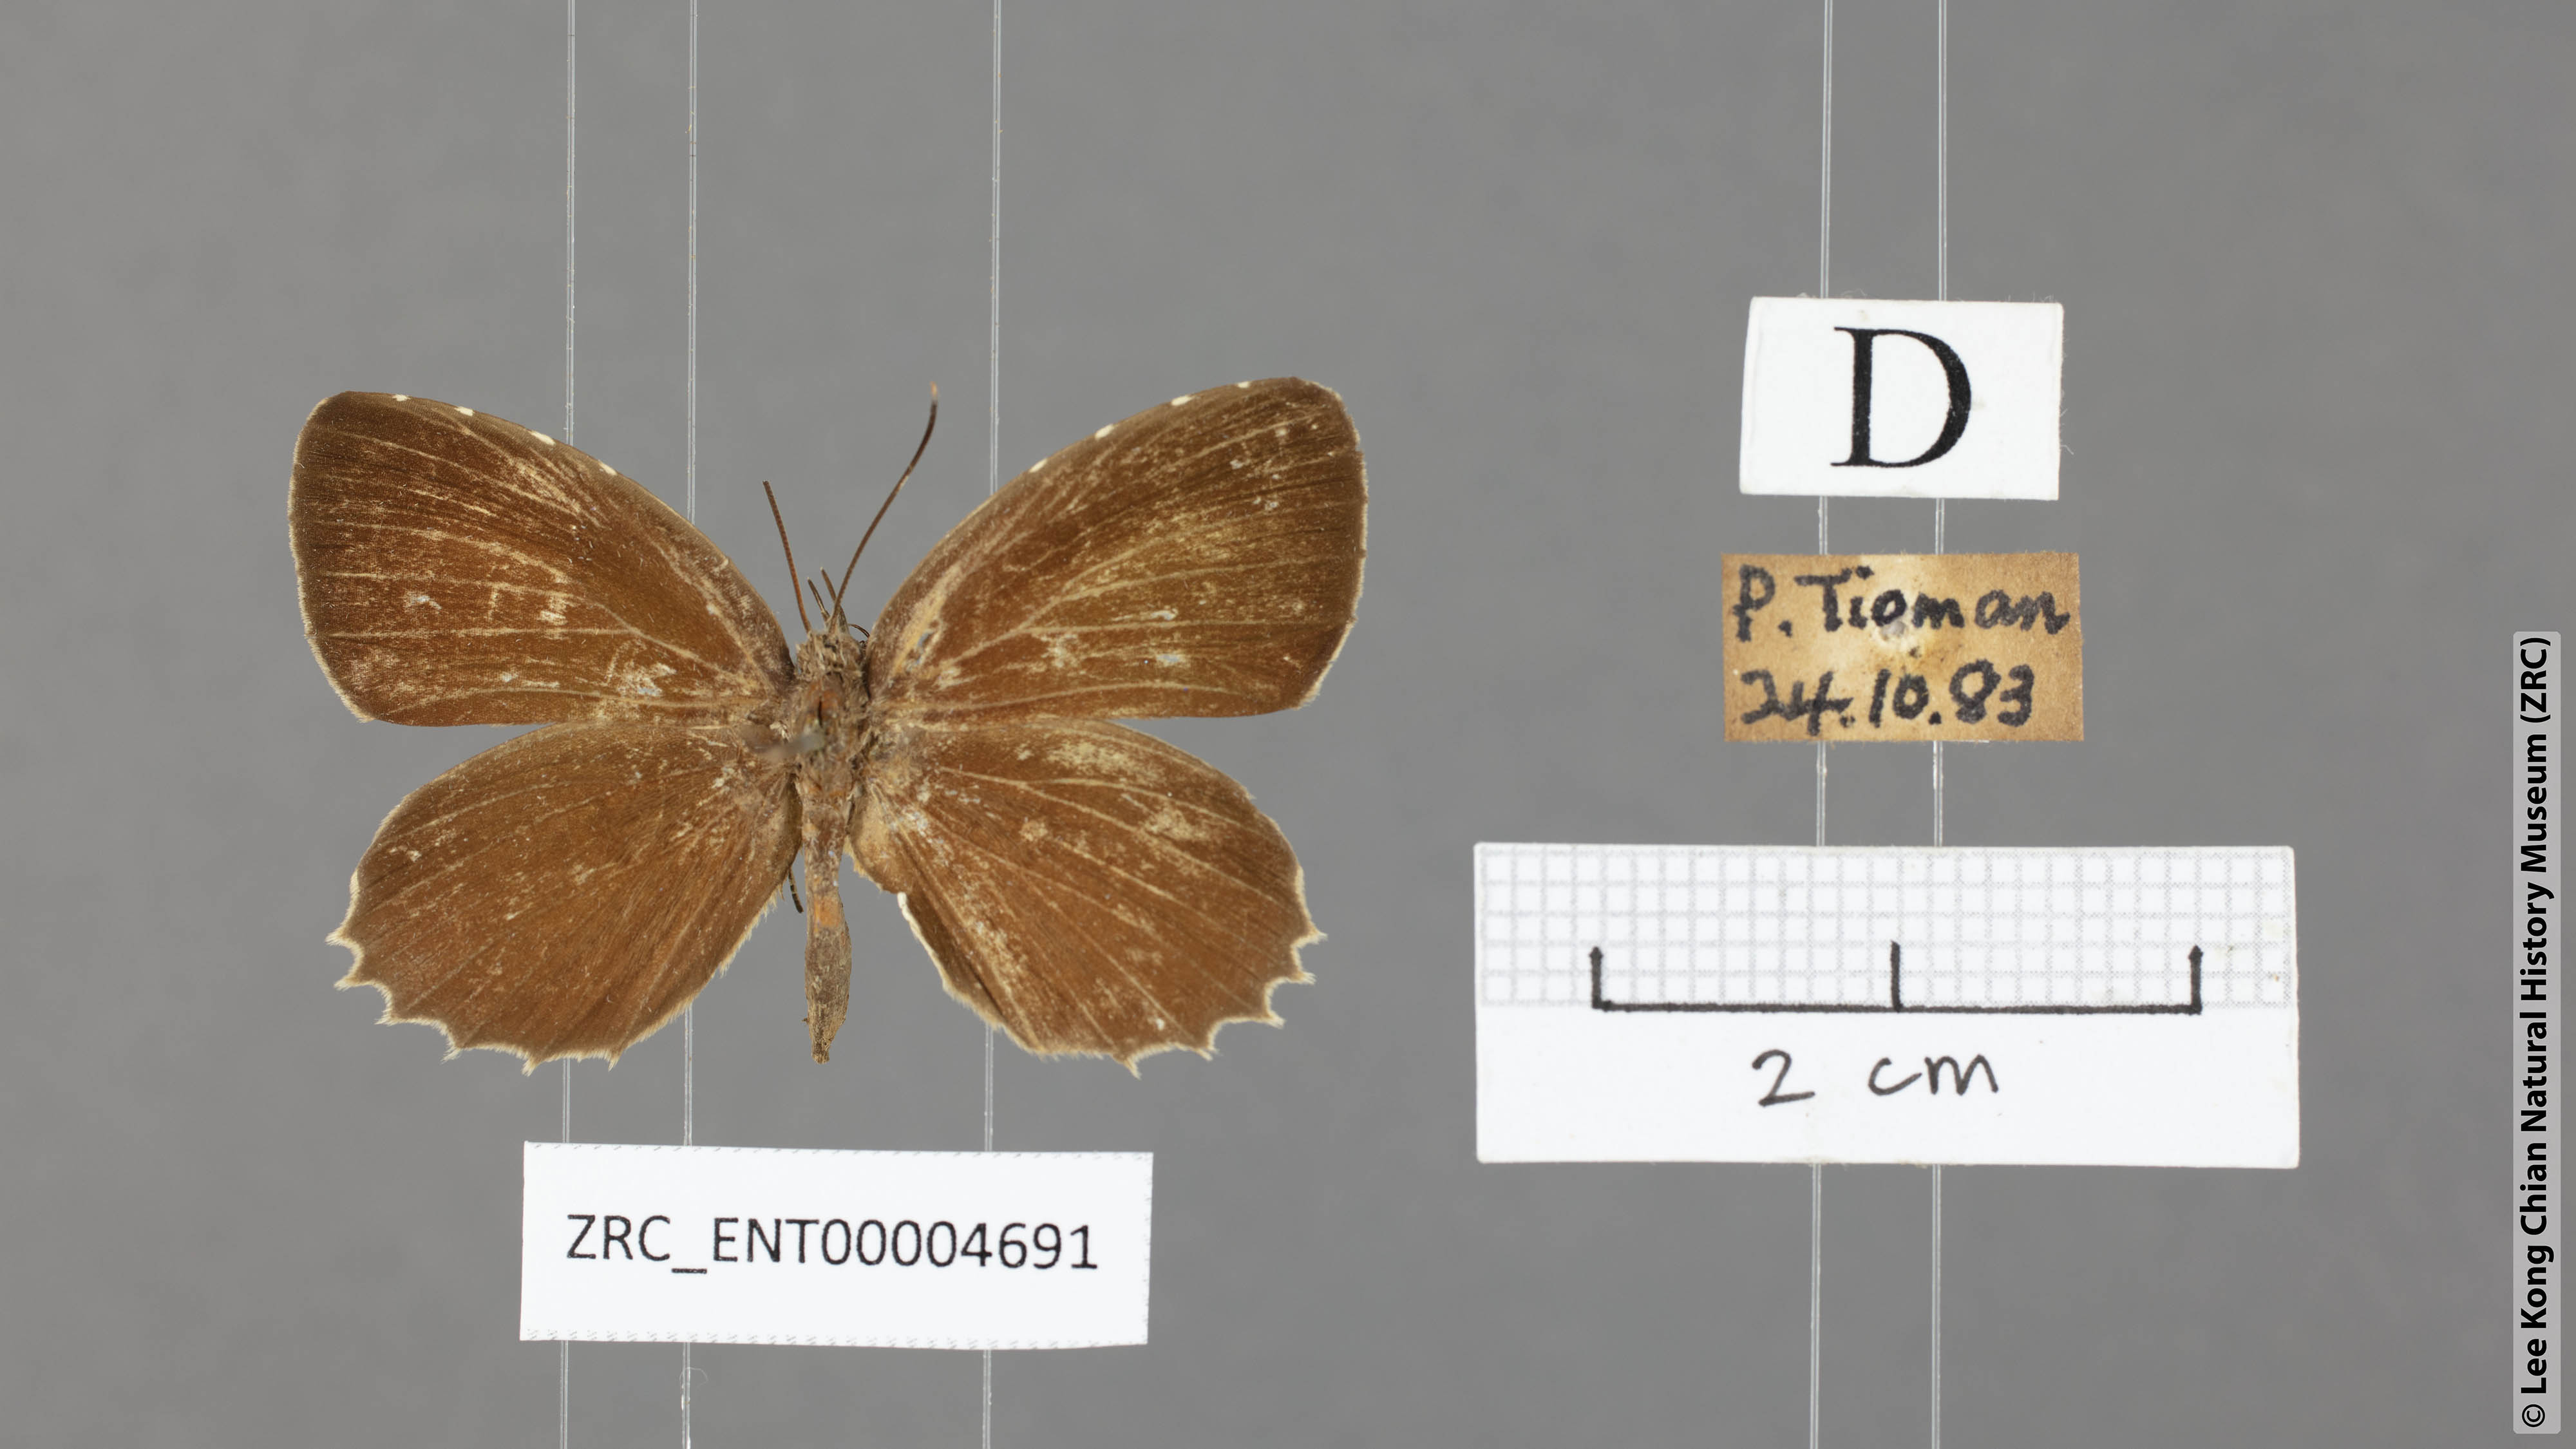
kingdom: Animalia
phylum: Arthropoda
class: Insecta
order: Lepidoptera
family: Lycaenidae
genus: Allotinus
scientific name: Allotinus horsfieldi
